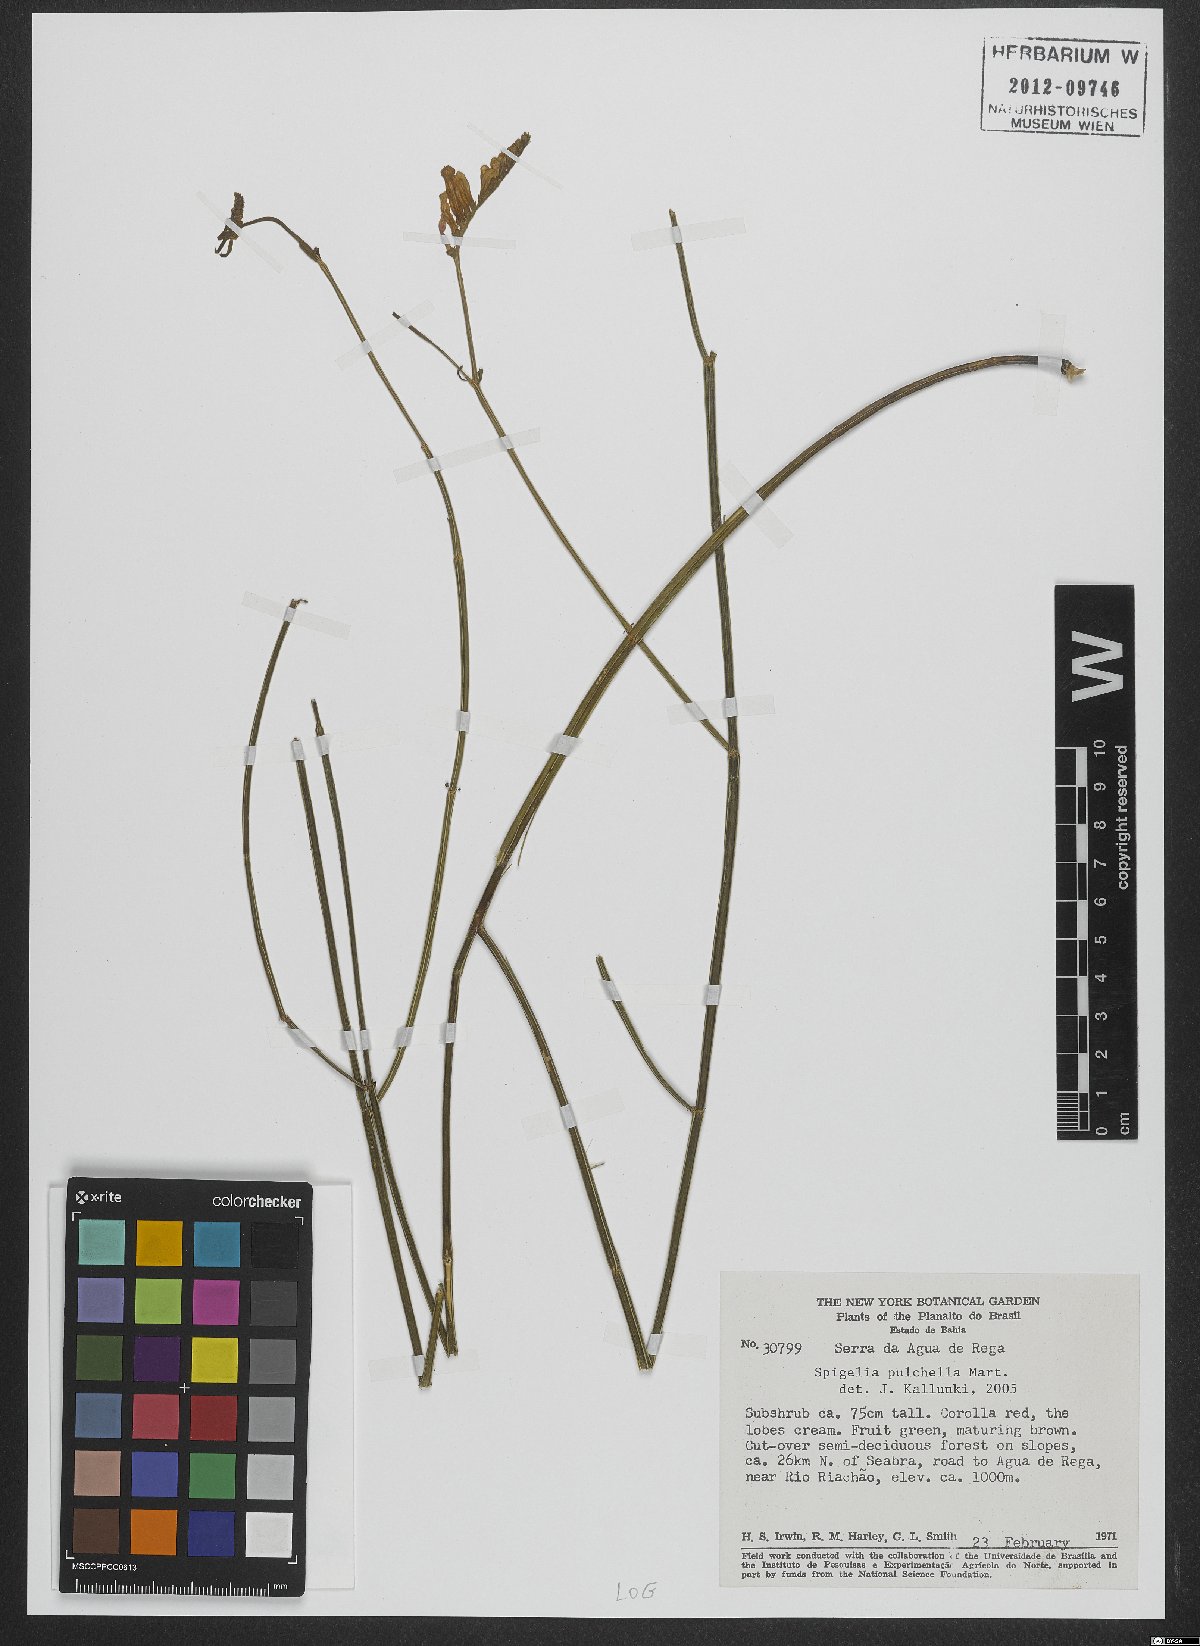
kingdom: Plantae
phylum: Tracheophyta
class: Magnoliopsida
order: Gentianales
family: Loganiaceae
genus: Spigelia
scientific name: Spigelia pulchella
